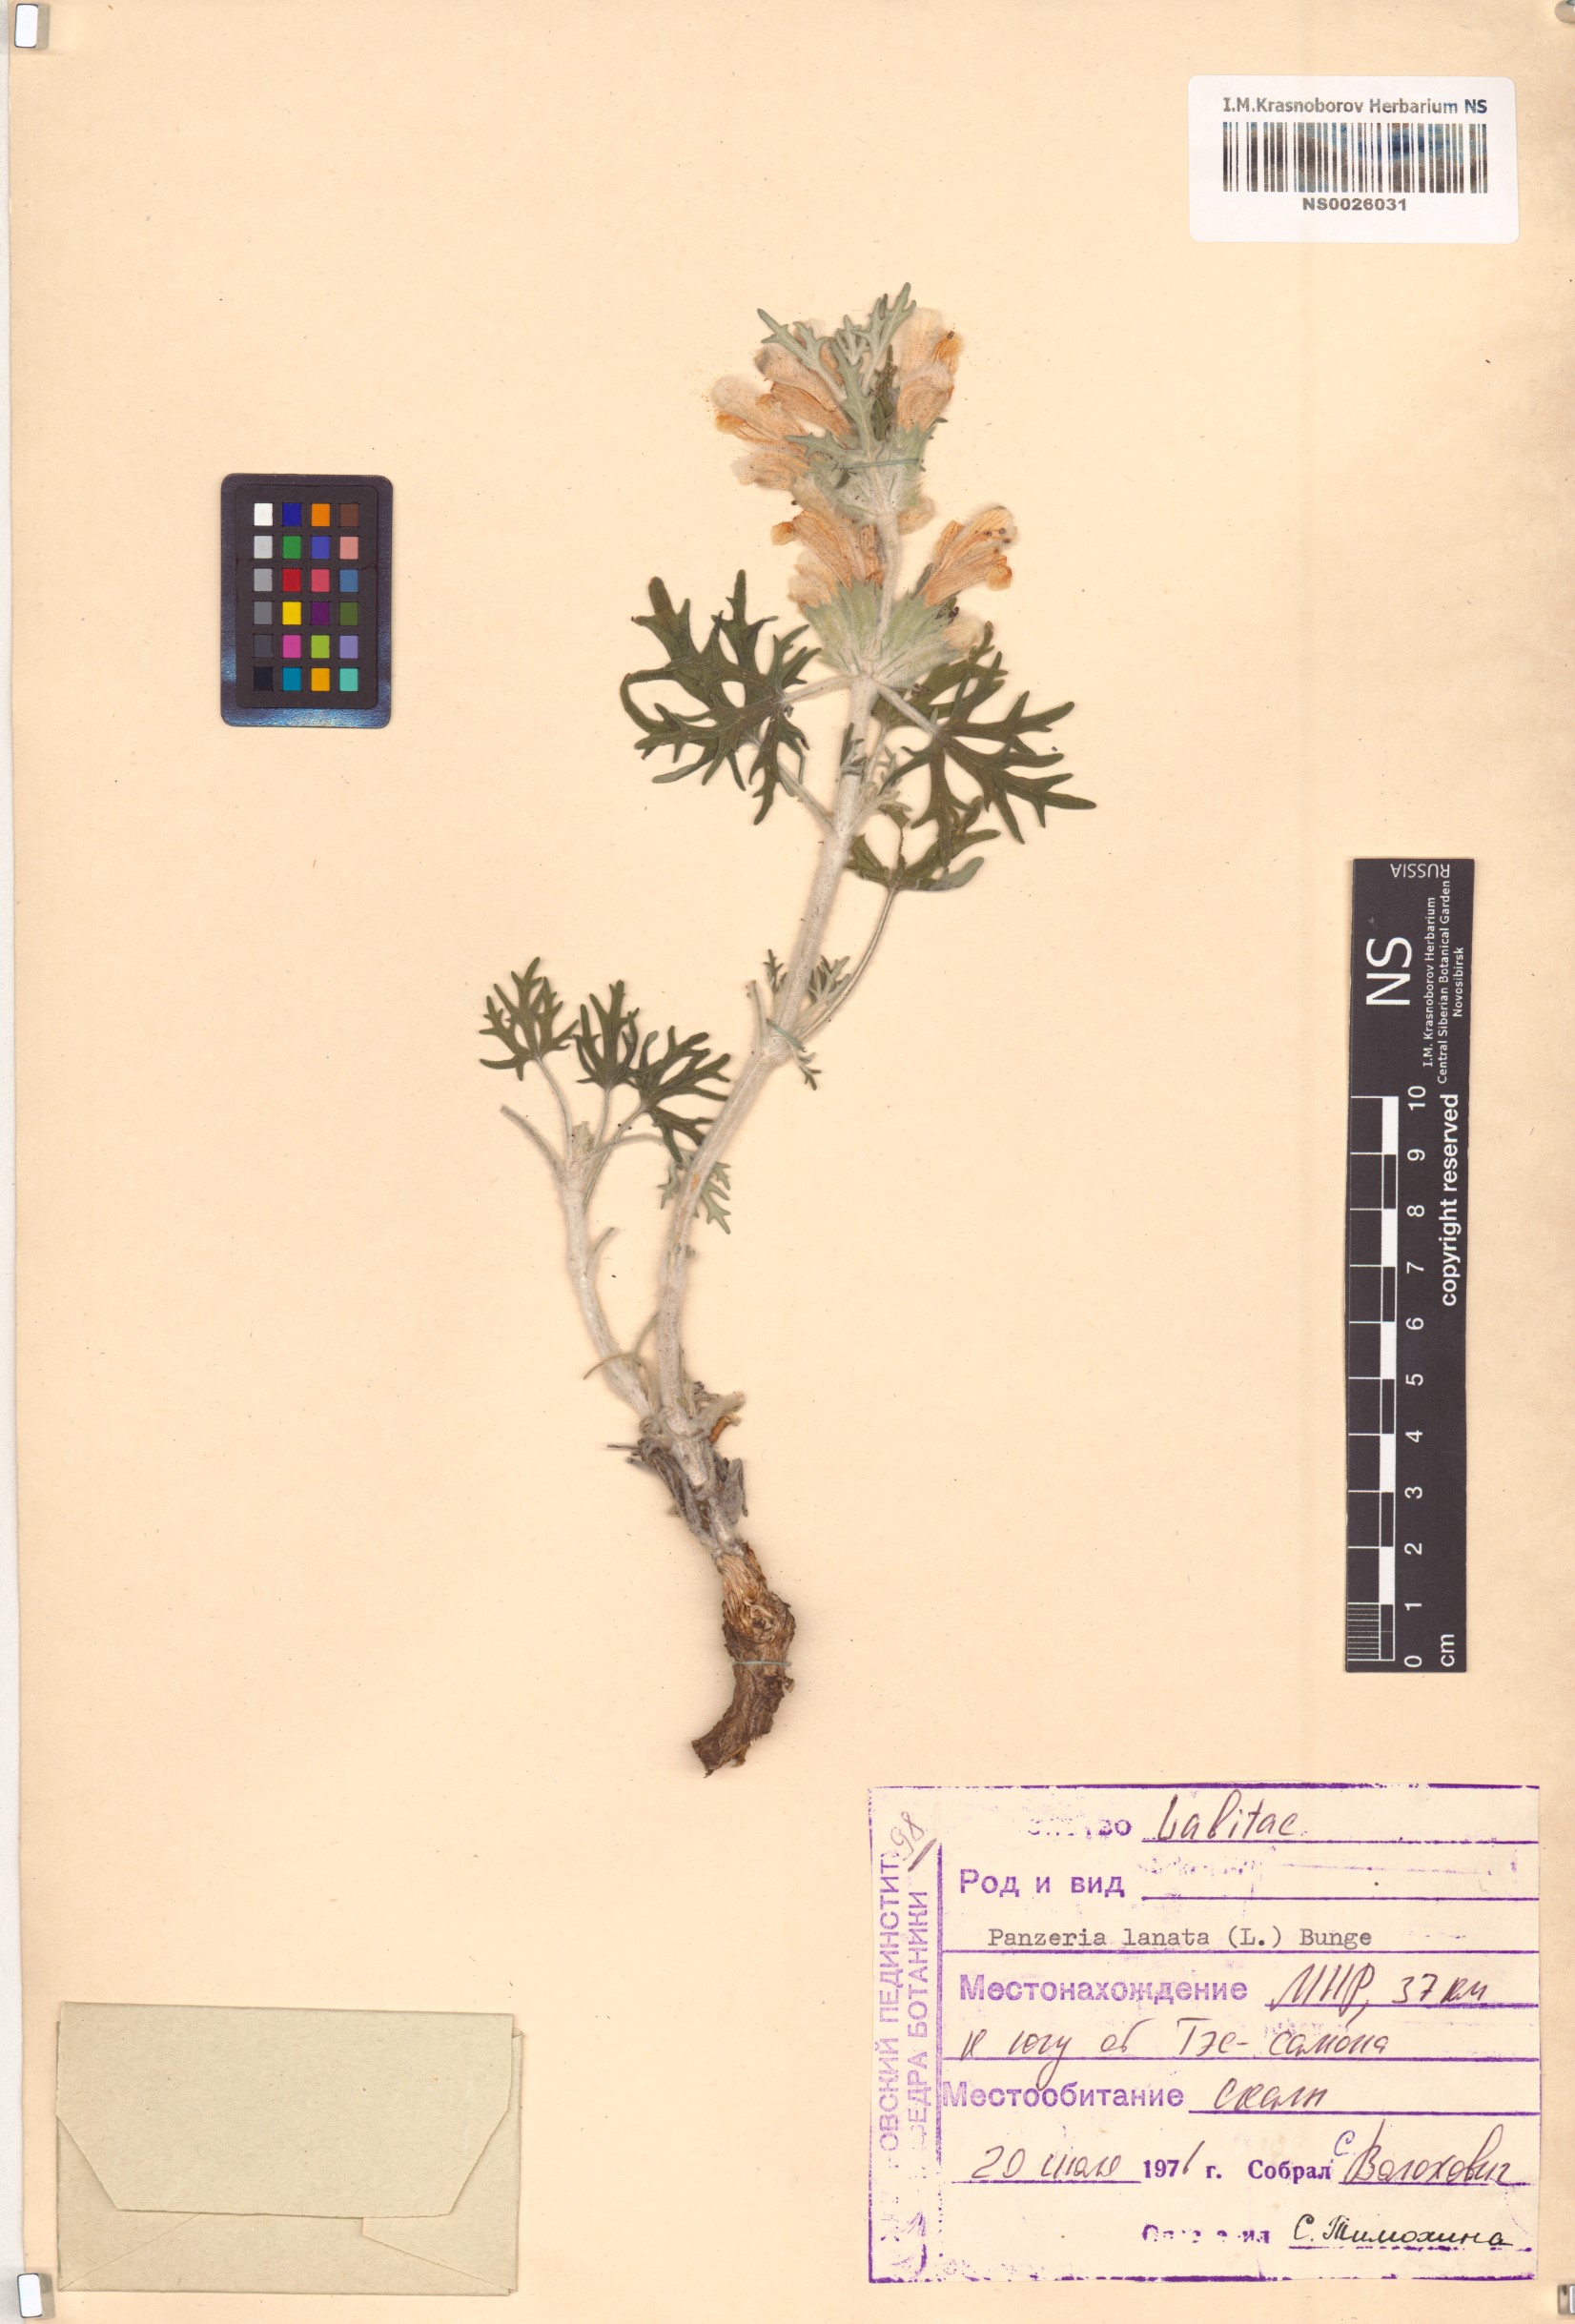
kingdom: Plantae
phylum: Tracheophyta
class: Magnoliopsida
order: Lamiales
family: Lamiaceae
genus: Panzerina
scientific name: Panzerina lanata
